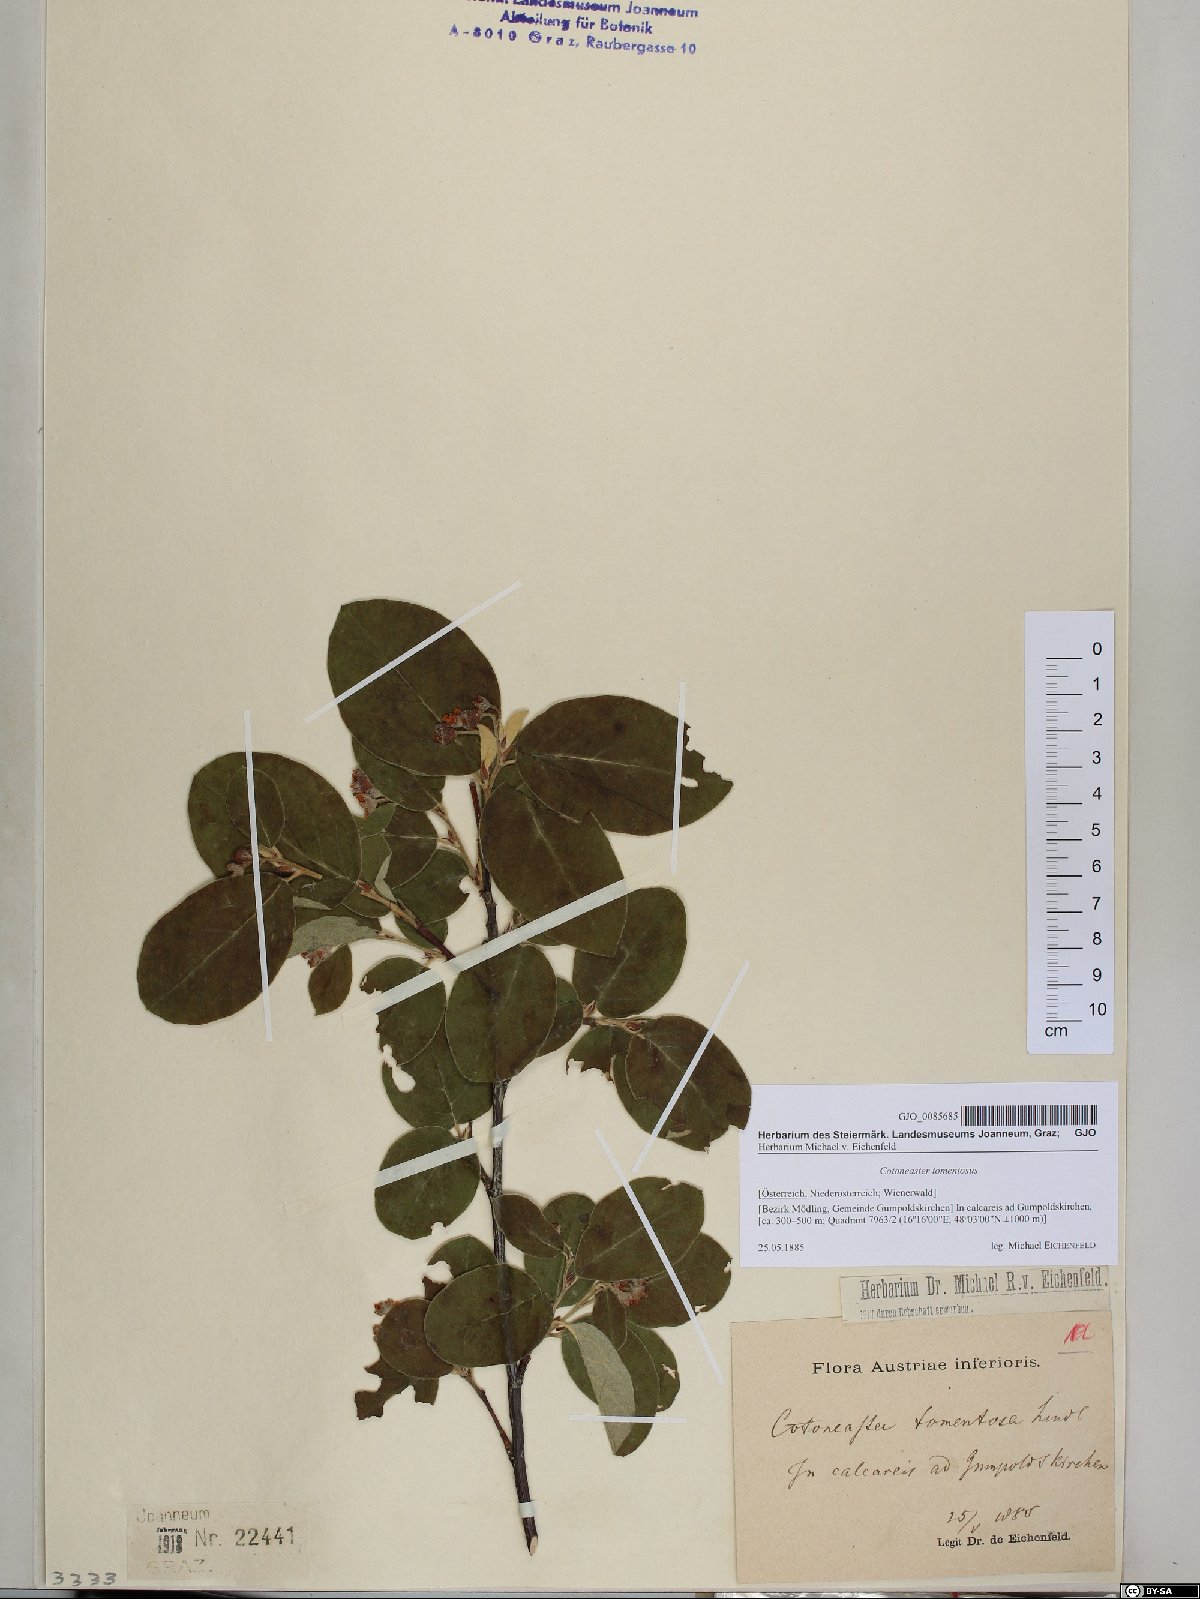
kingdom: Plantae
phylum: Tracheophyta
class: Magnoliopsida
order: Rosales
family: Rosaceae
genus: Cotoneaster
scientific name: Cotoneaster tomentosus
